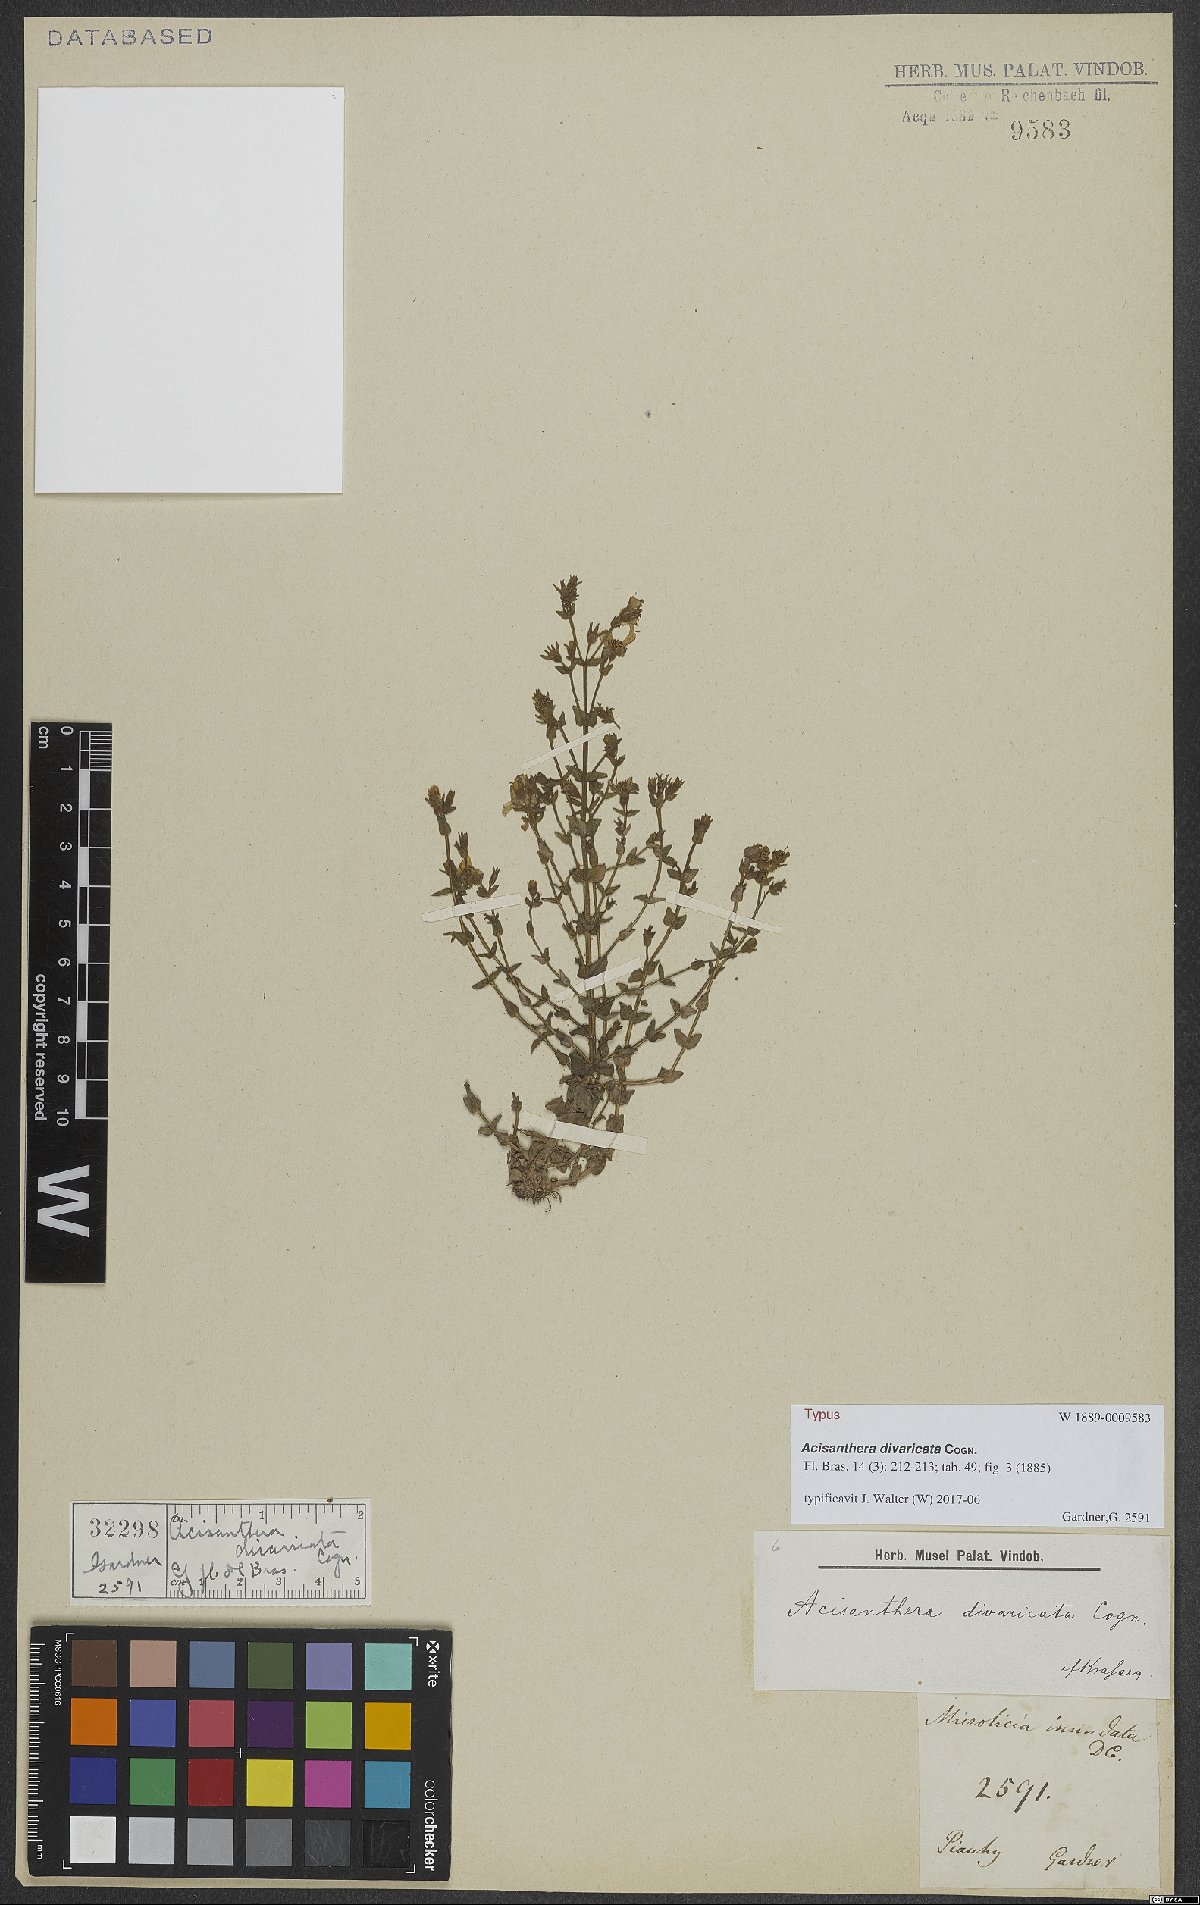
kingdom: Plantae
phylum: Tracheophyta
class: Magnoliopsida
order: Myrtales
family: Melastomataceae
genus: Acisanthera
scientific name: Acisanthera divaricata
